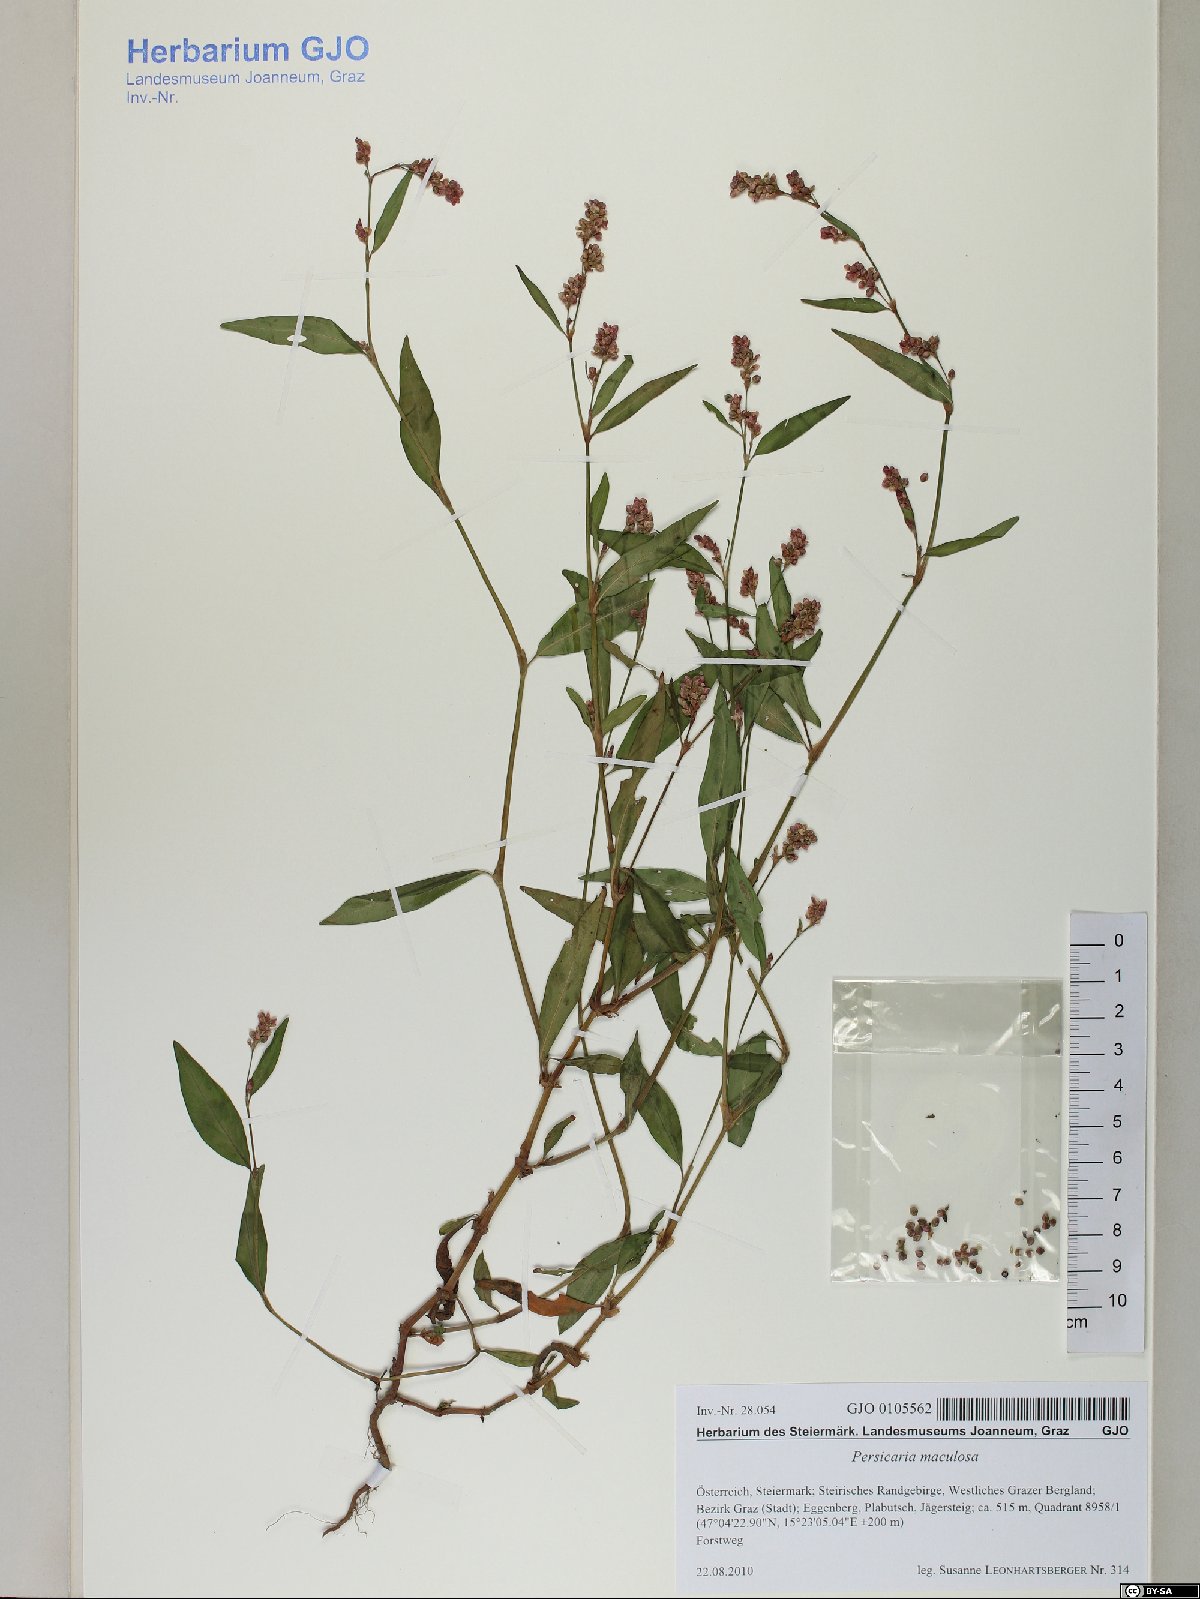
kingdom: Plantae
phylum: Tracheophyta
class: Magnoliopsida
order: Caryophyllales
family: Polygonaceae
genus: Persicaria
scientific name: Persicaria maculosa
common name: Redshank
